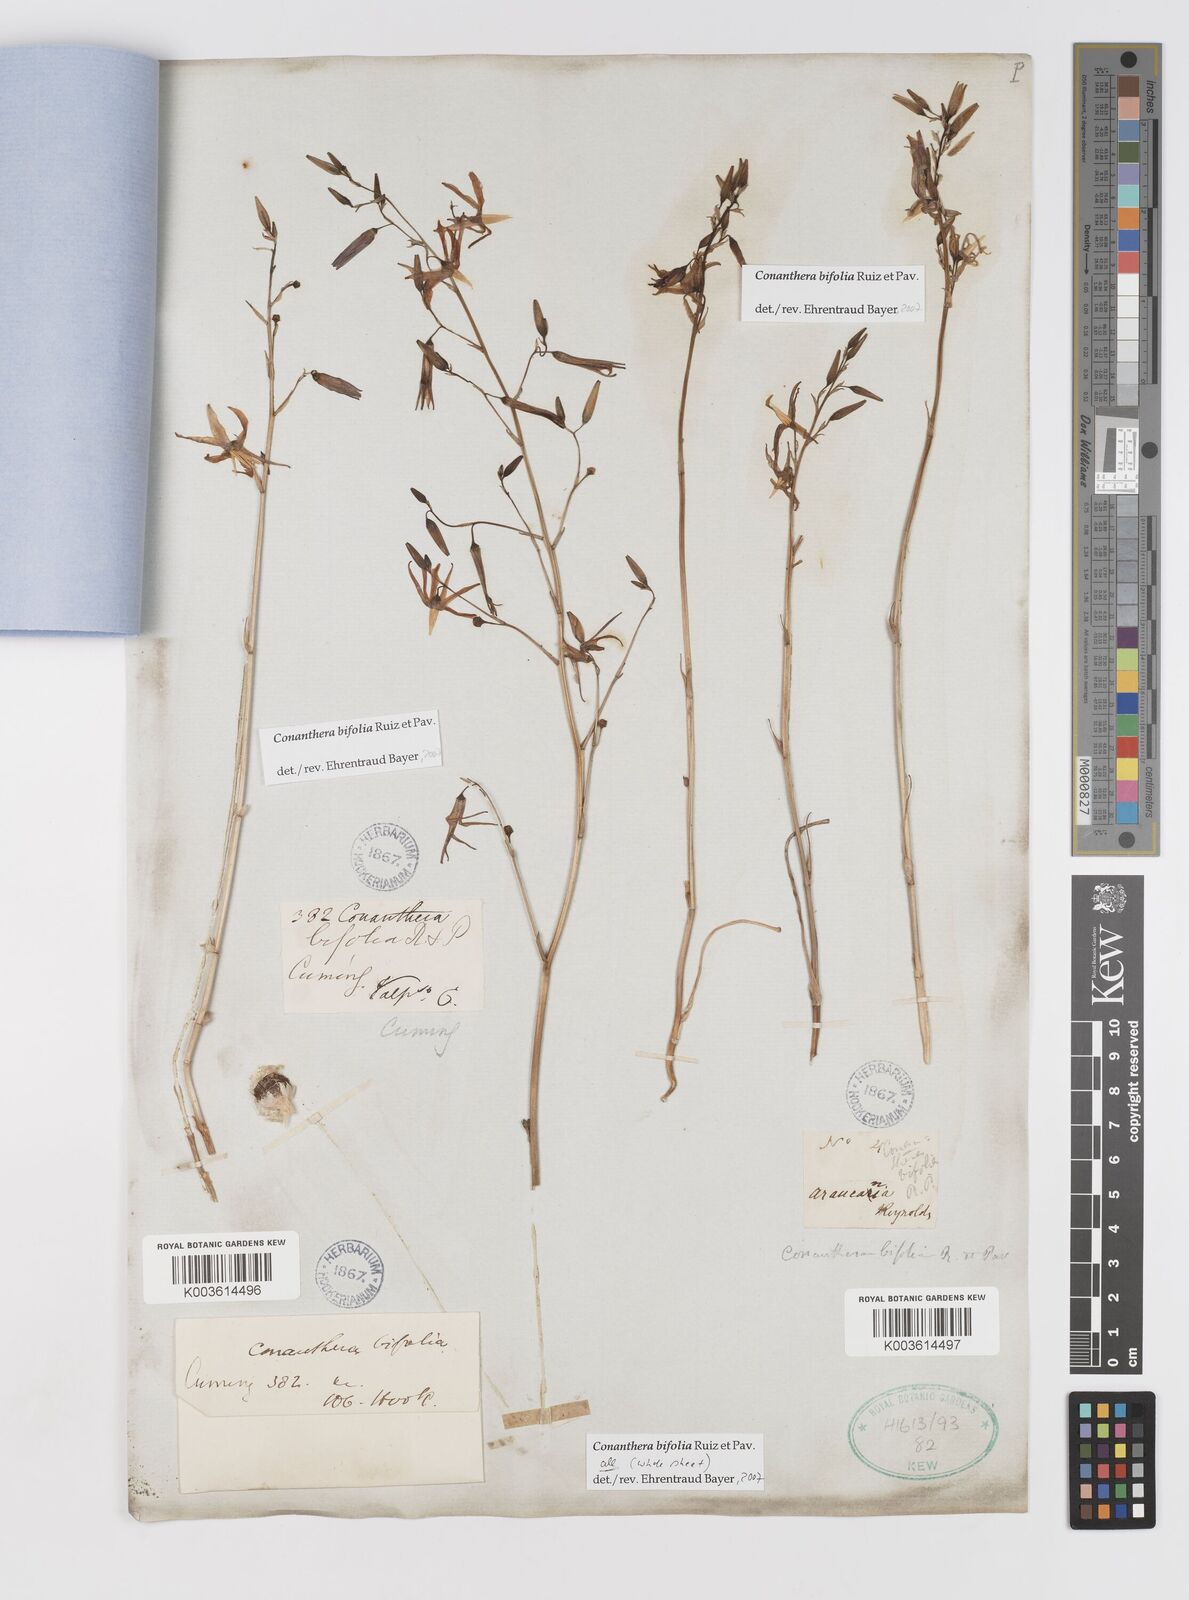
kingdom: Plantae
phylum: Tracheophyta
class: Liliopsida
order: Asparagales
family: Tecophilaeaceae
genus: Conanthera
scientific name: Conanthera bifolia
